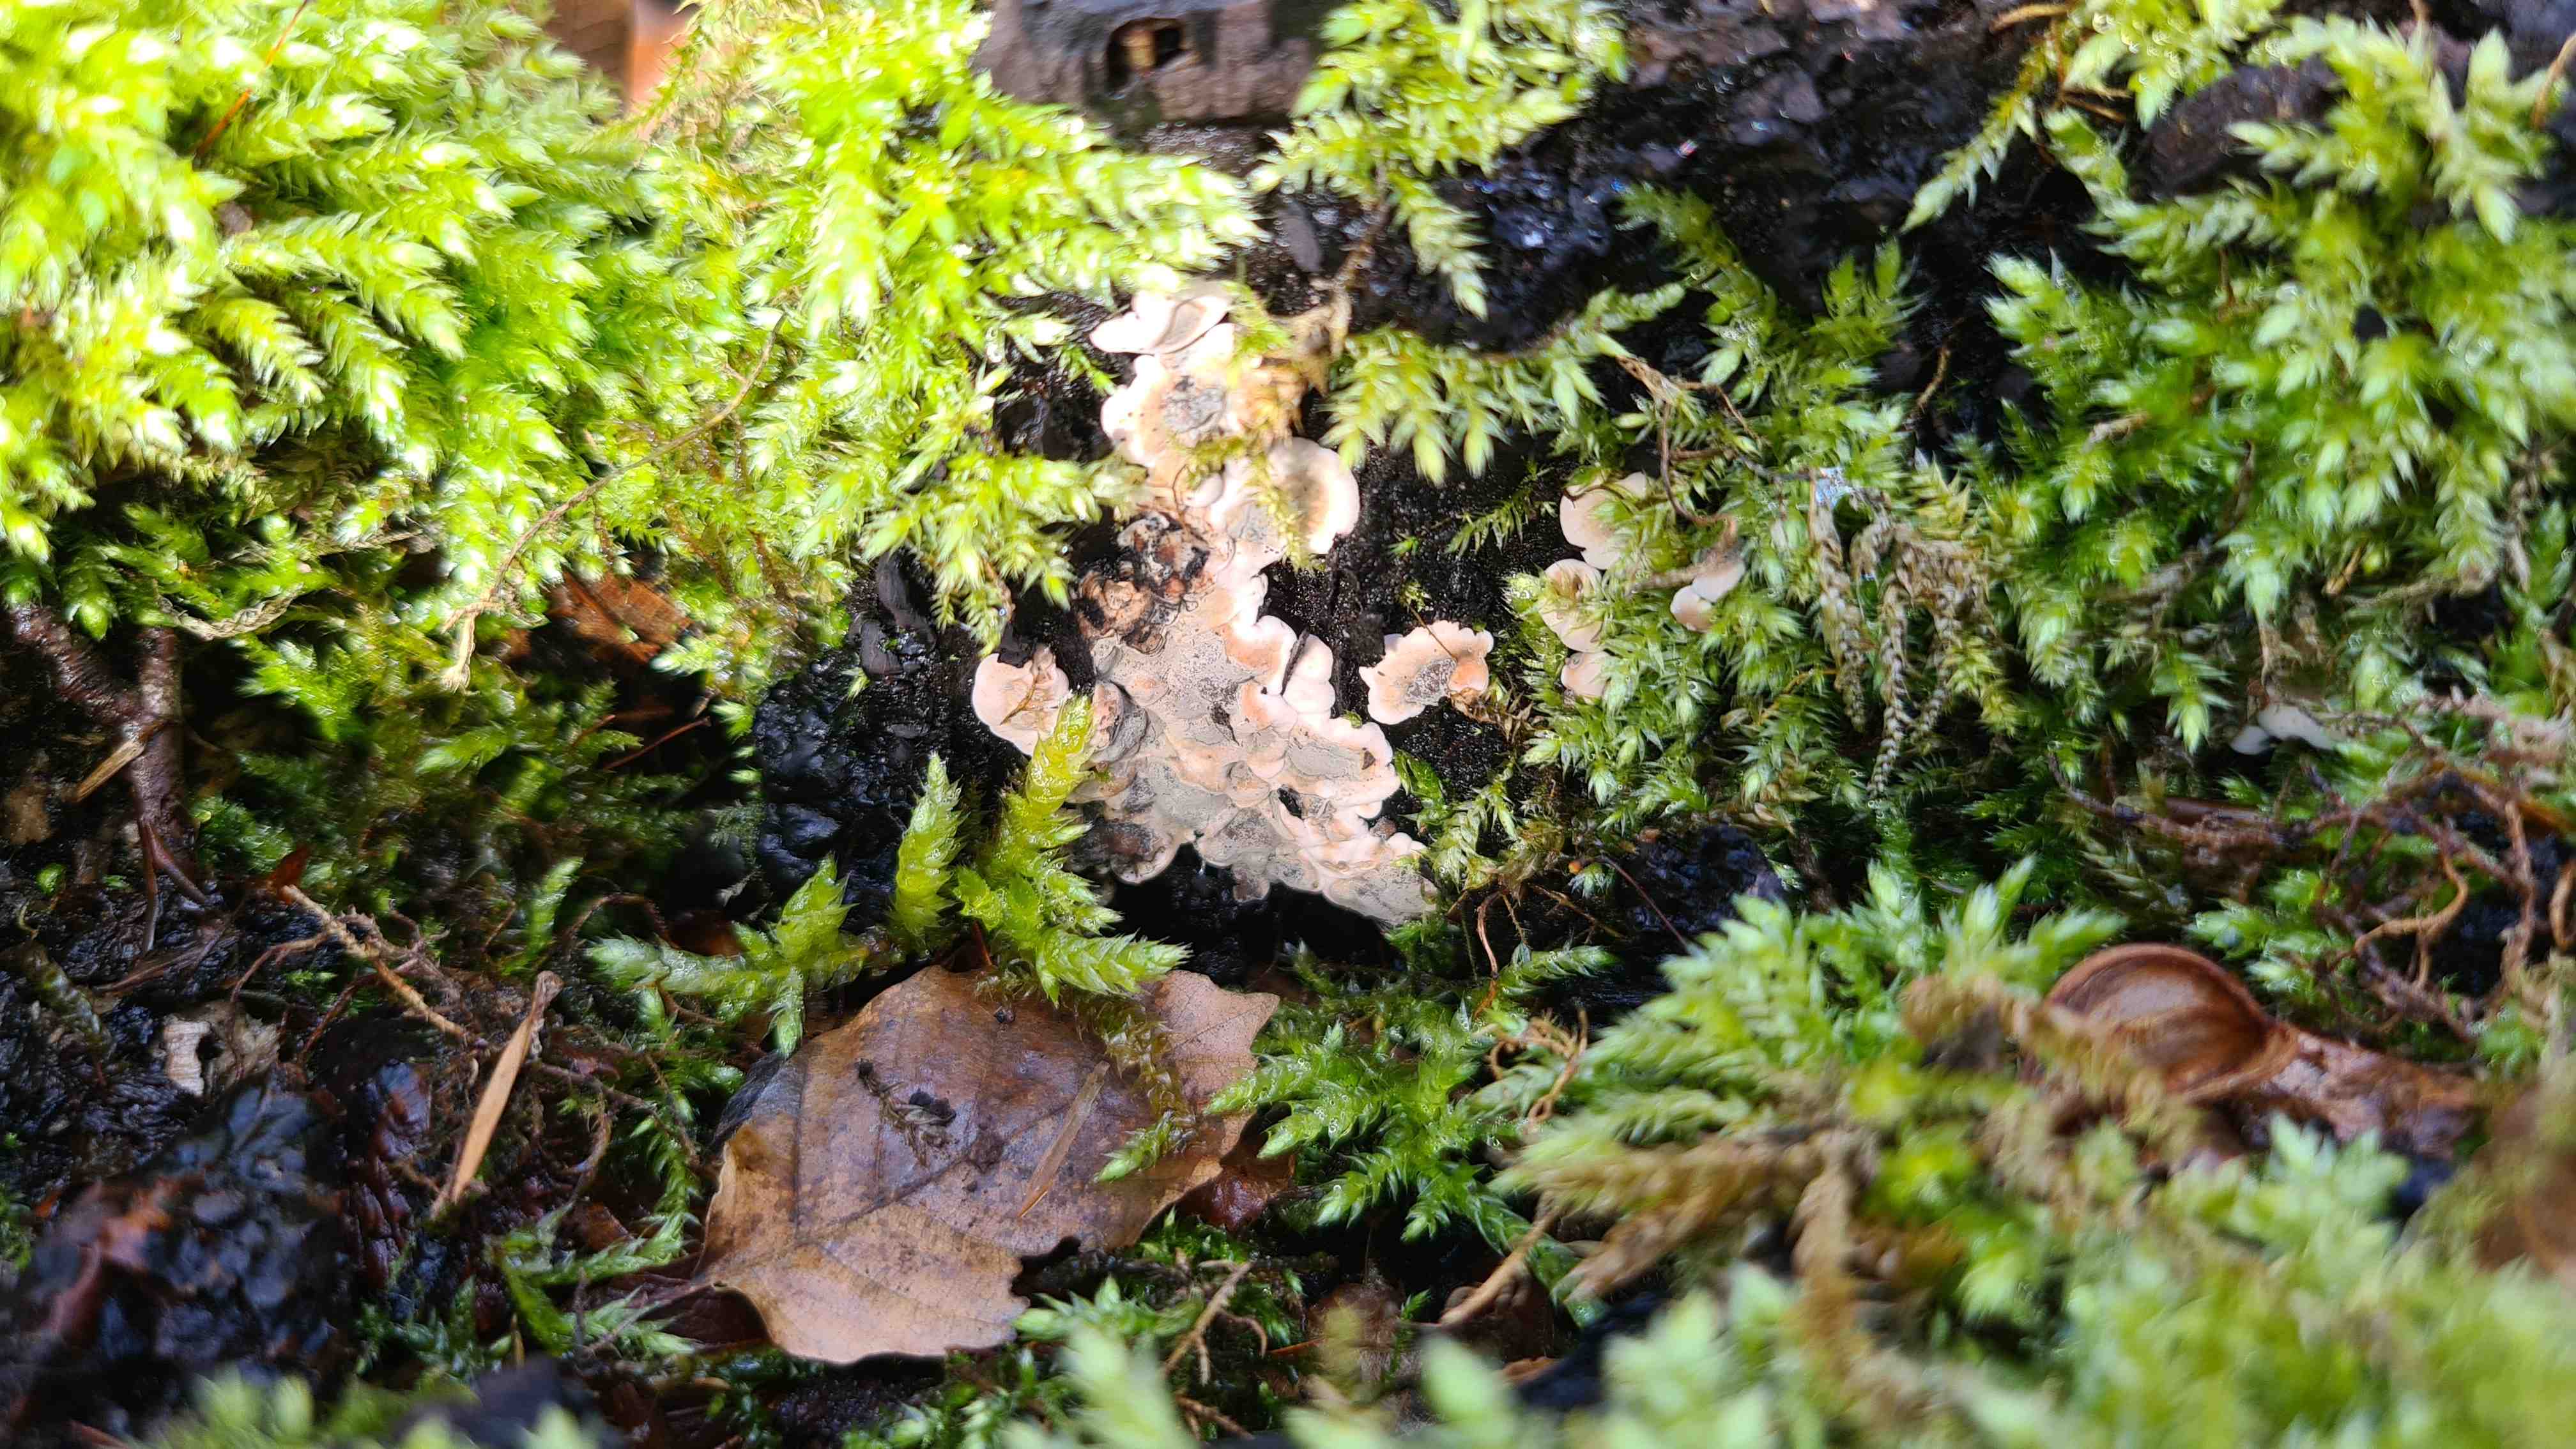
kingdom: Fungi
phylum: Ascomycota
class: Sordariomycetes
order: Xylariales
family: Xylariaceae
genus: Kretzschmaria
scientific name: Kretzschmaria deusta
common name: stor kulsvamp
